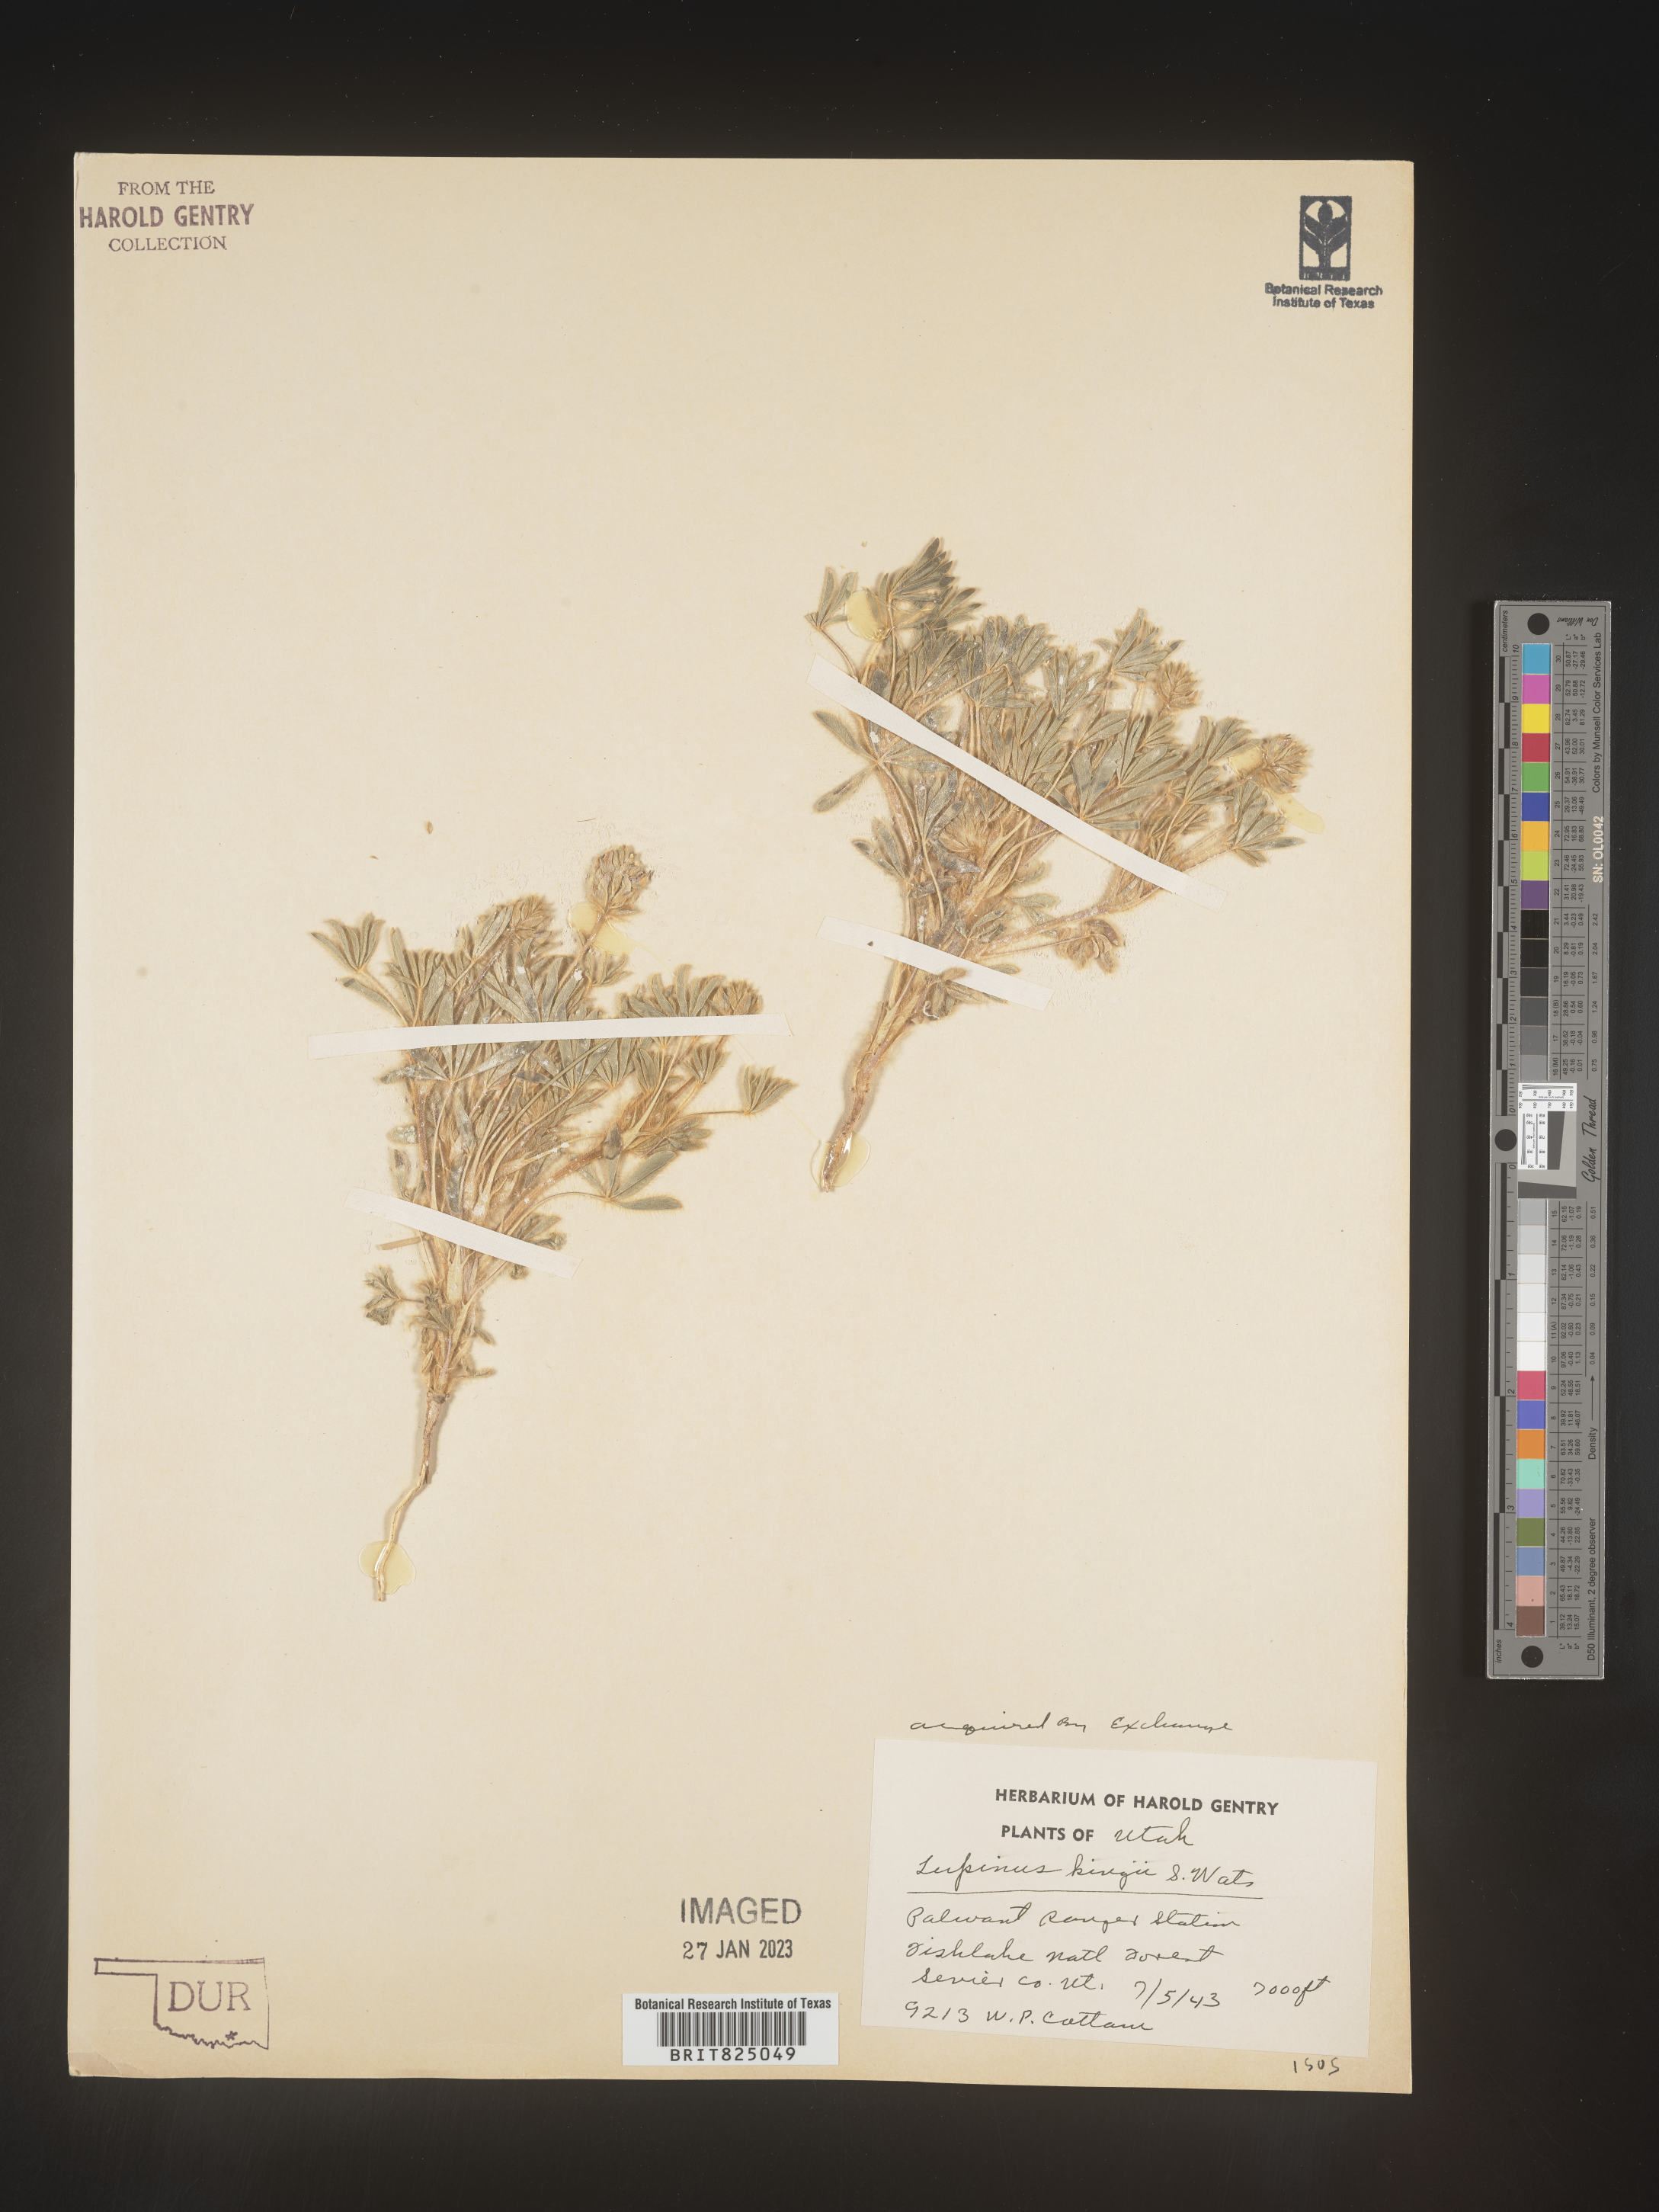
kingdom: Plantae
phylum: Tracheophyta
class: Magnoliopsida
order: Fabales
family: Fabaceae
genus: Lupinus
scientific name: Lupinus
